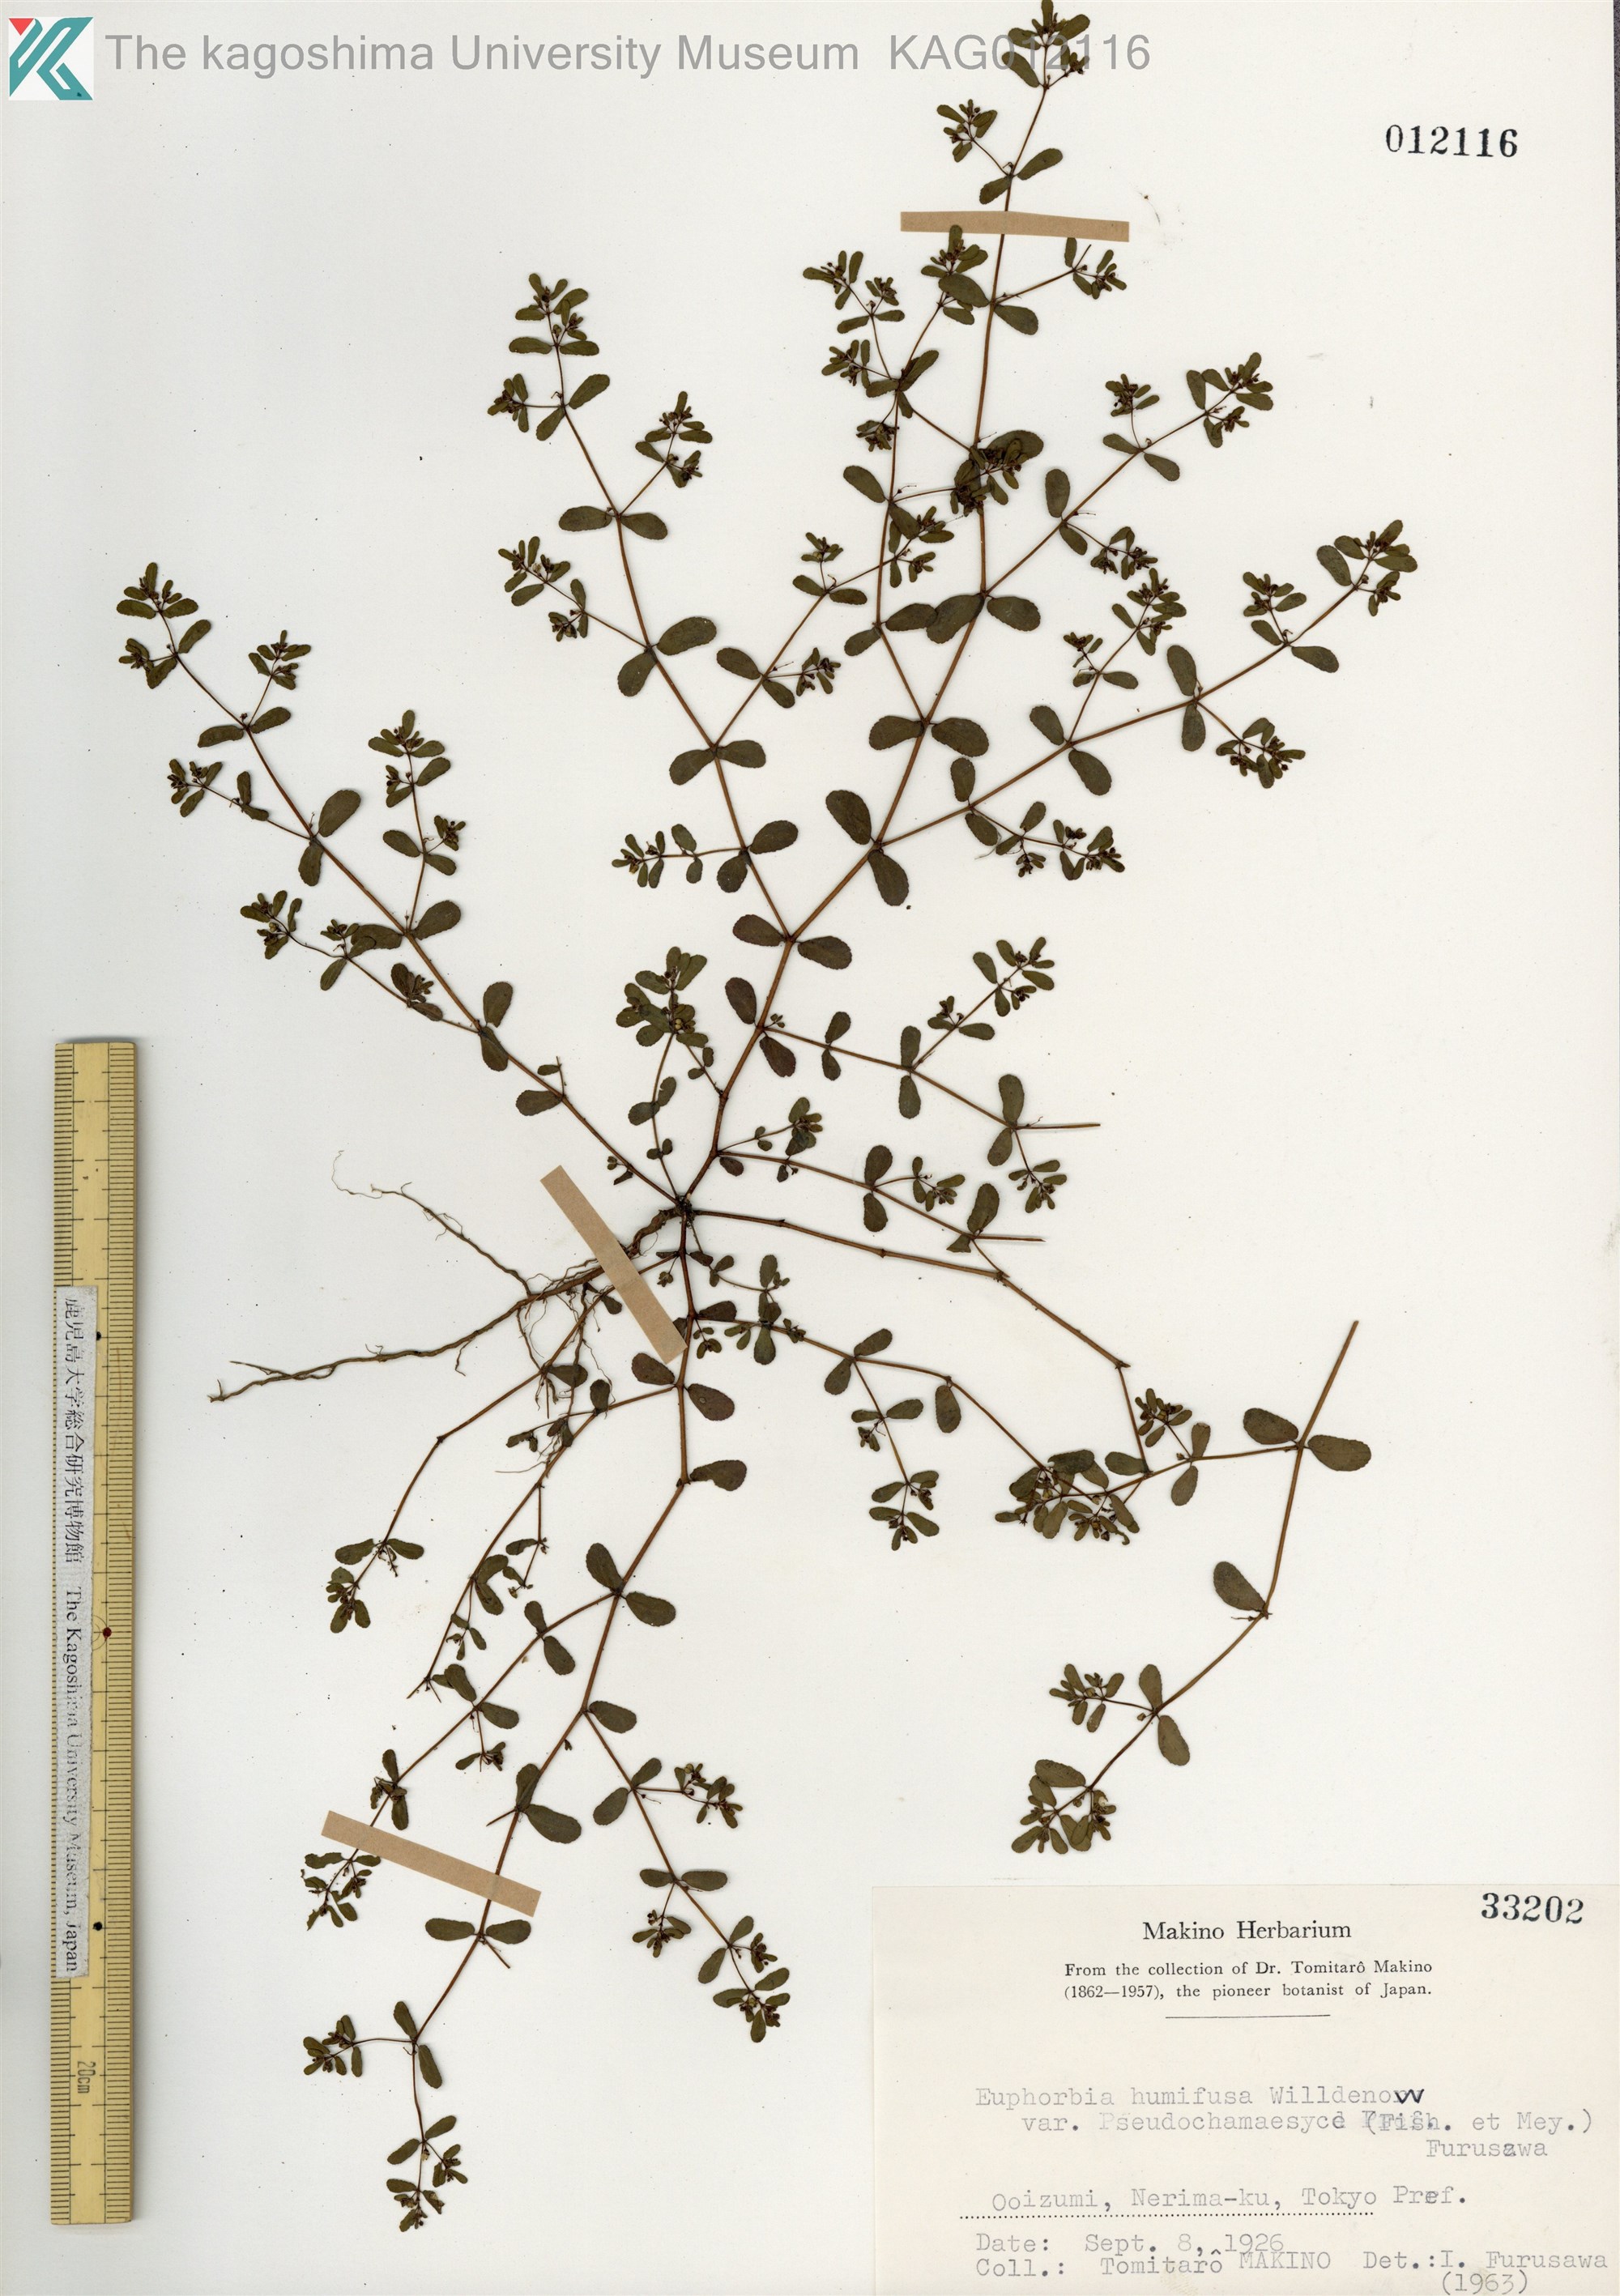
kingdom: Plantae
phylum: Tracheophyta
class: Magnoliopsida
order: Malpighiales
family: Euphorbiaceae
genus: Euphorbia
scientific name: Euphorbia humifusa
